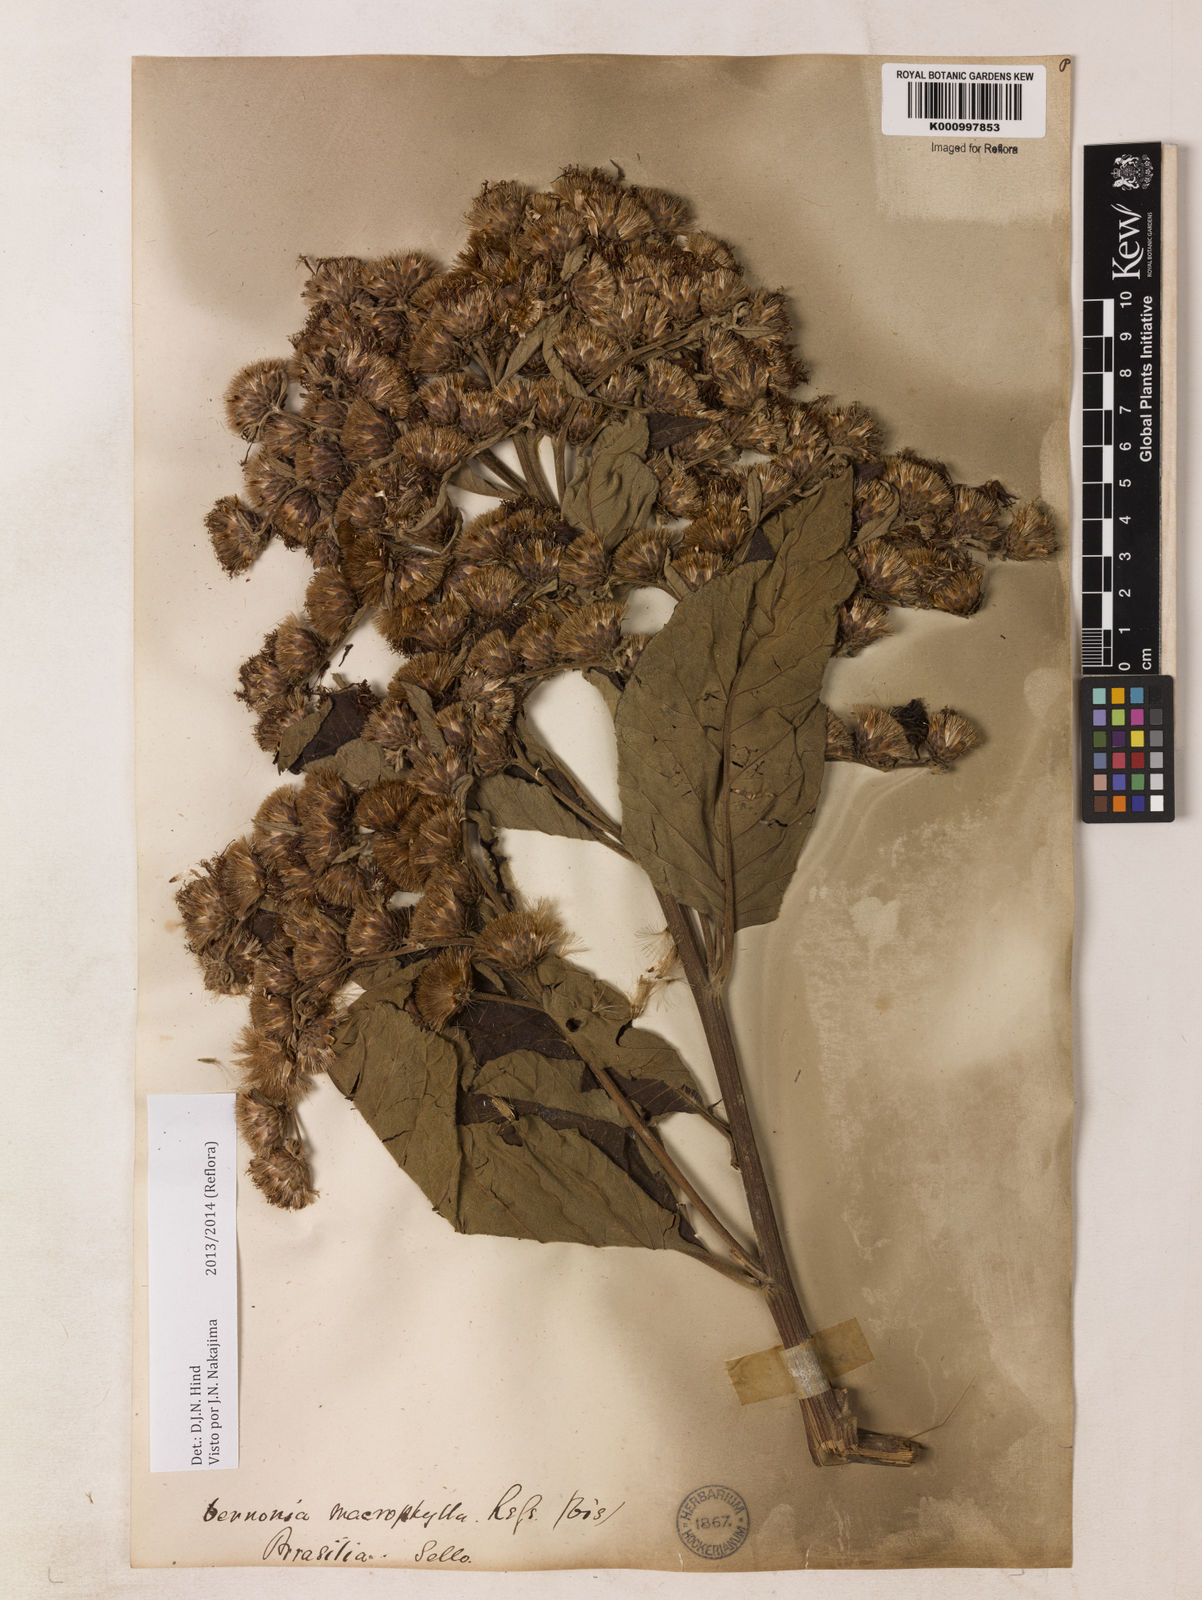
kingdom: Plantae
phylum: Tracheophyta
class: Magnoliopsida
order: Asterales
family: Asteraceae
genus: Lessingianthus
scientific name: Lessingianthus macrophyllus
